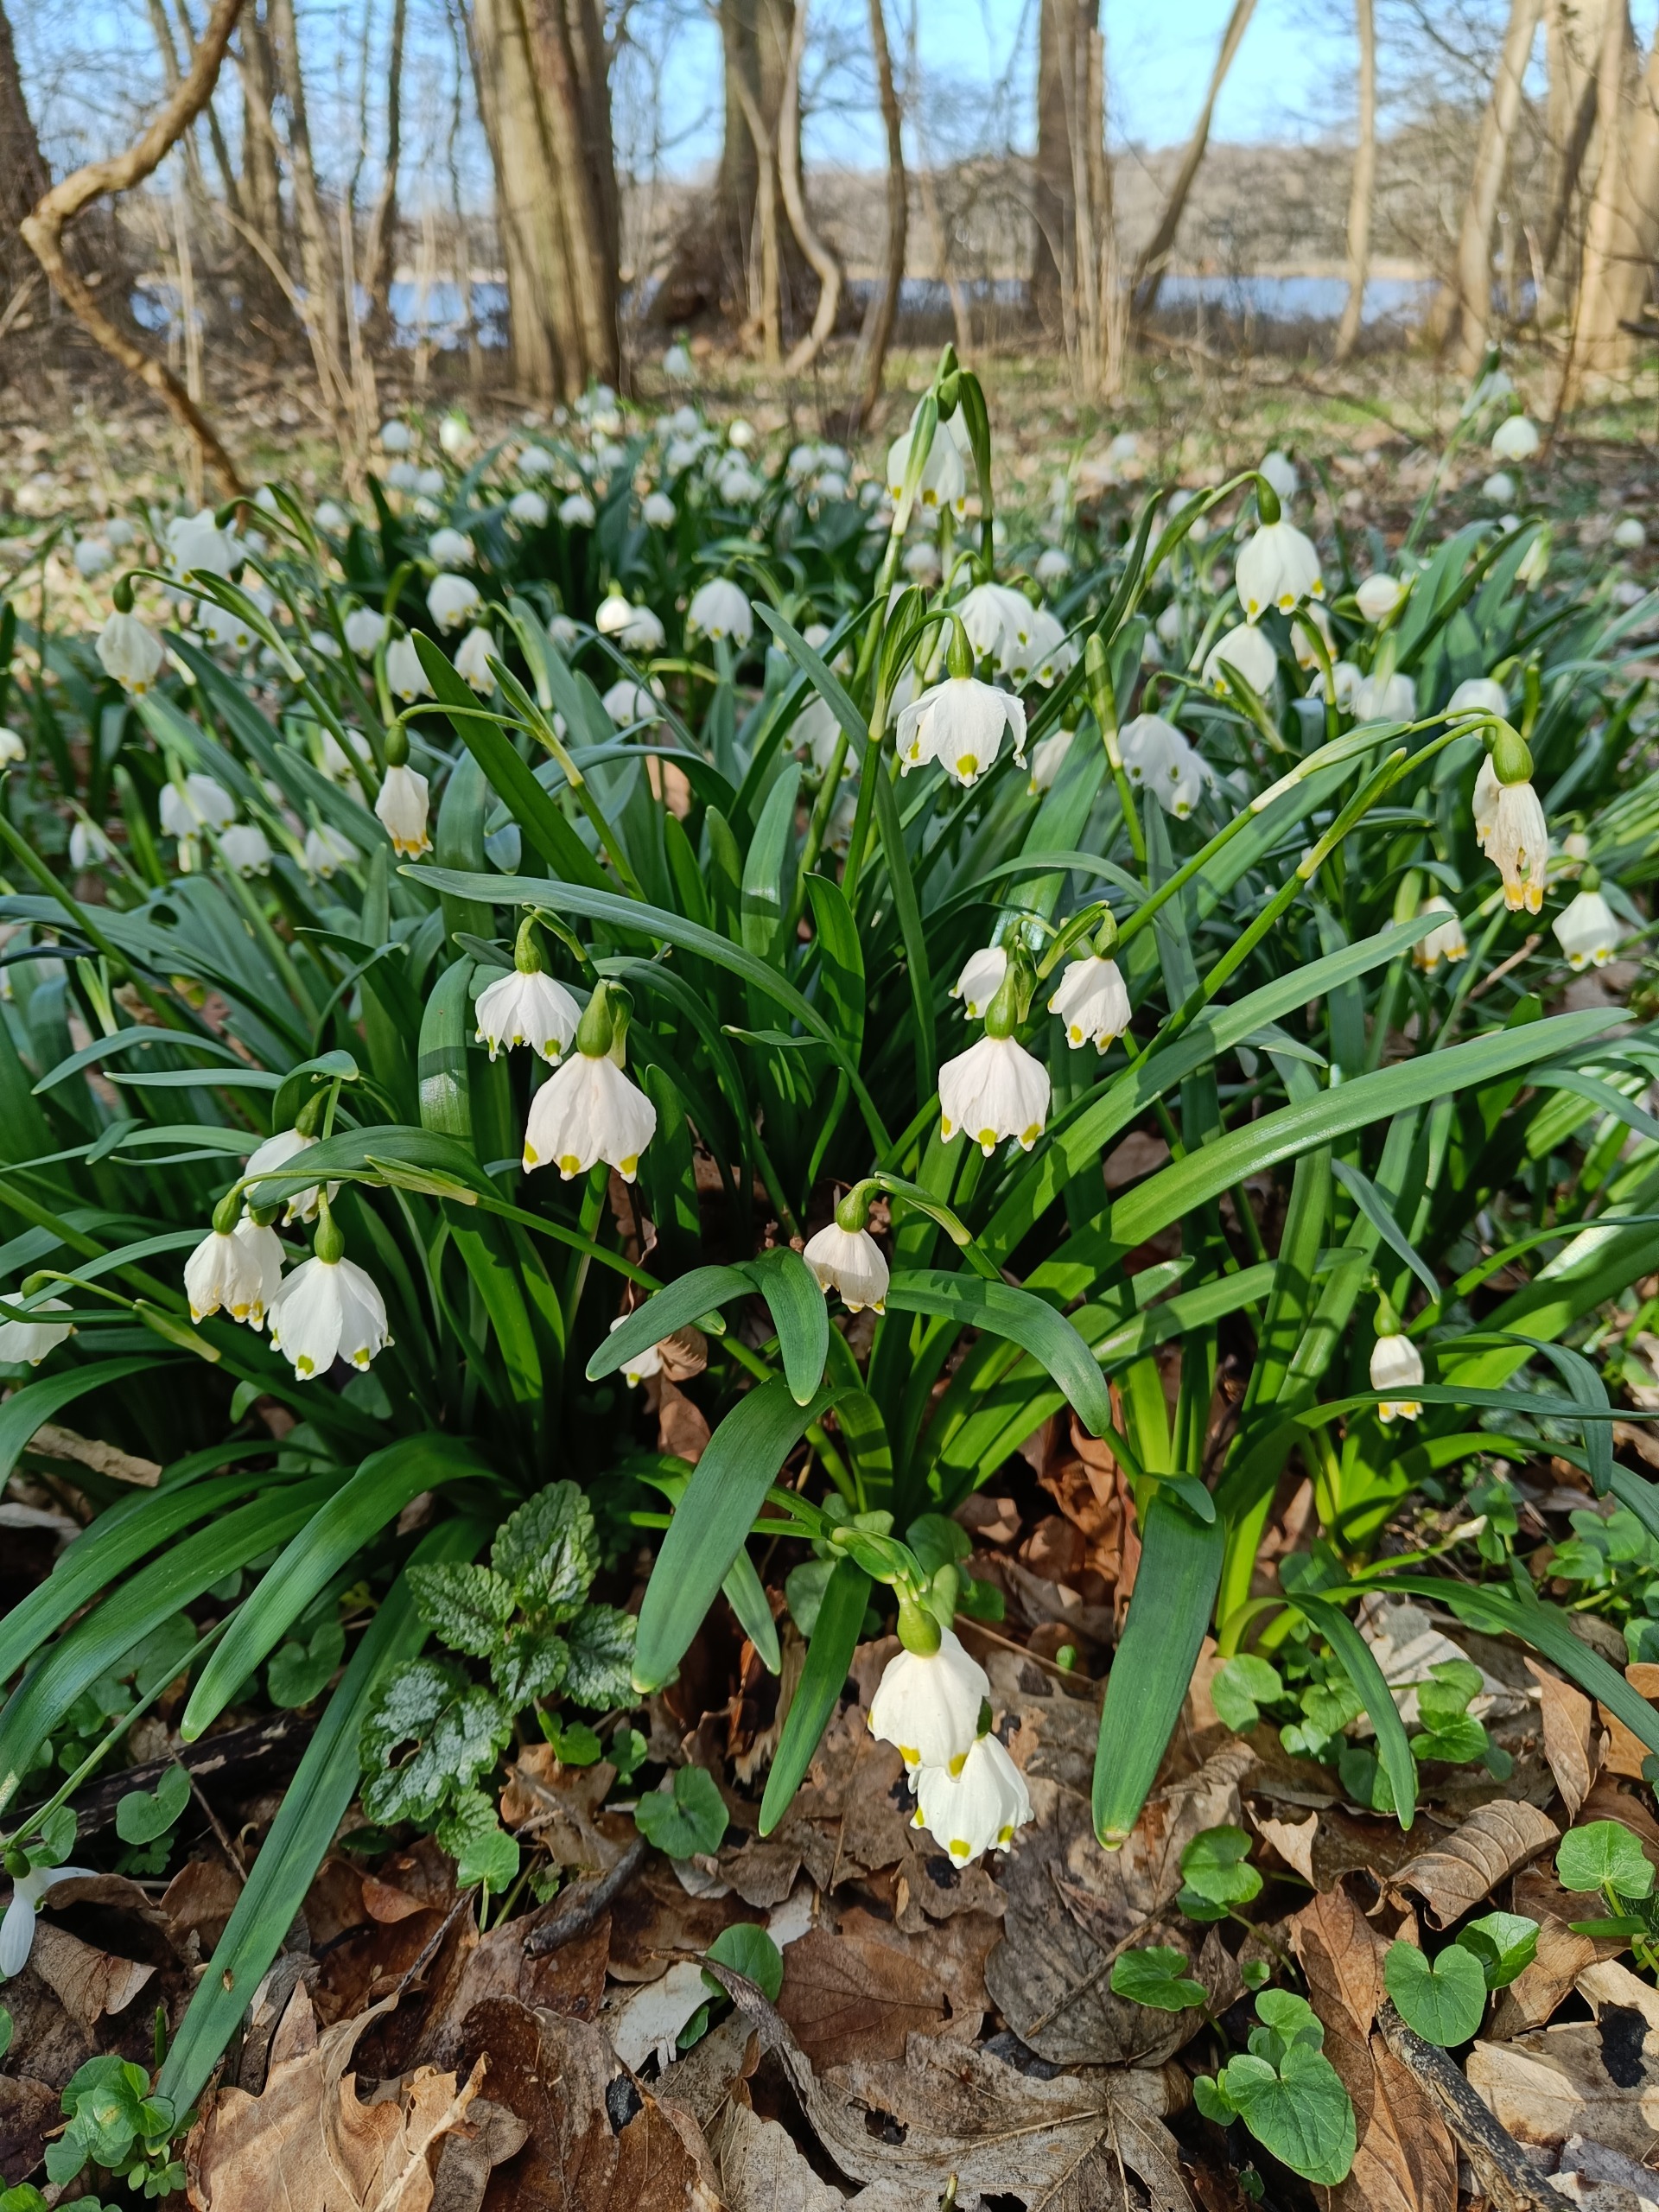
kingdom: Plantae
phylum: Tracheophyta
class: Liliopsida
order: Asparagales
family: Amaryllidaceae
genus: Leucojum
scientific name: Leucojum vernum
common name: Dorthealilje
